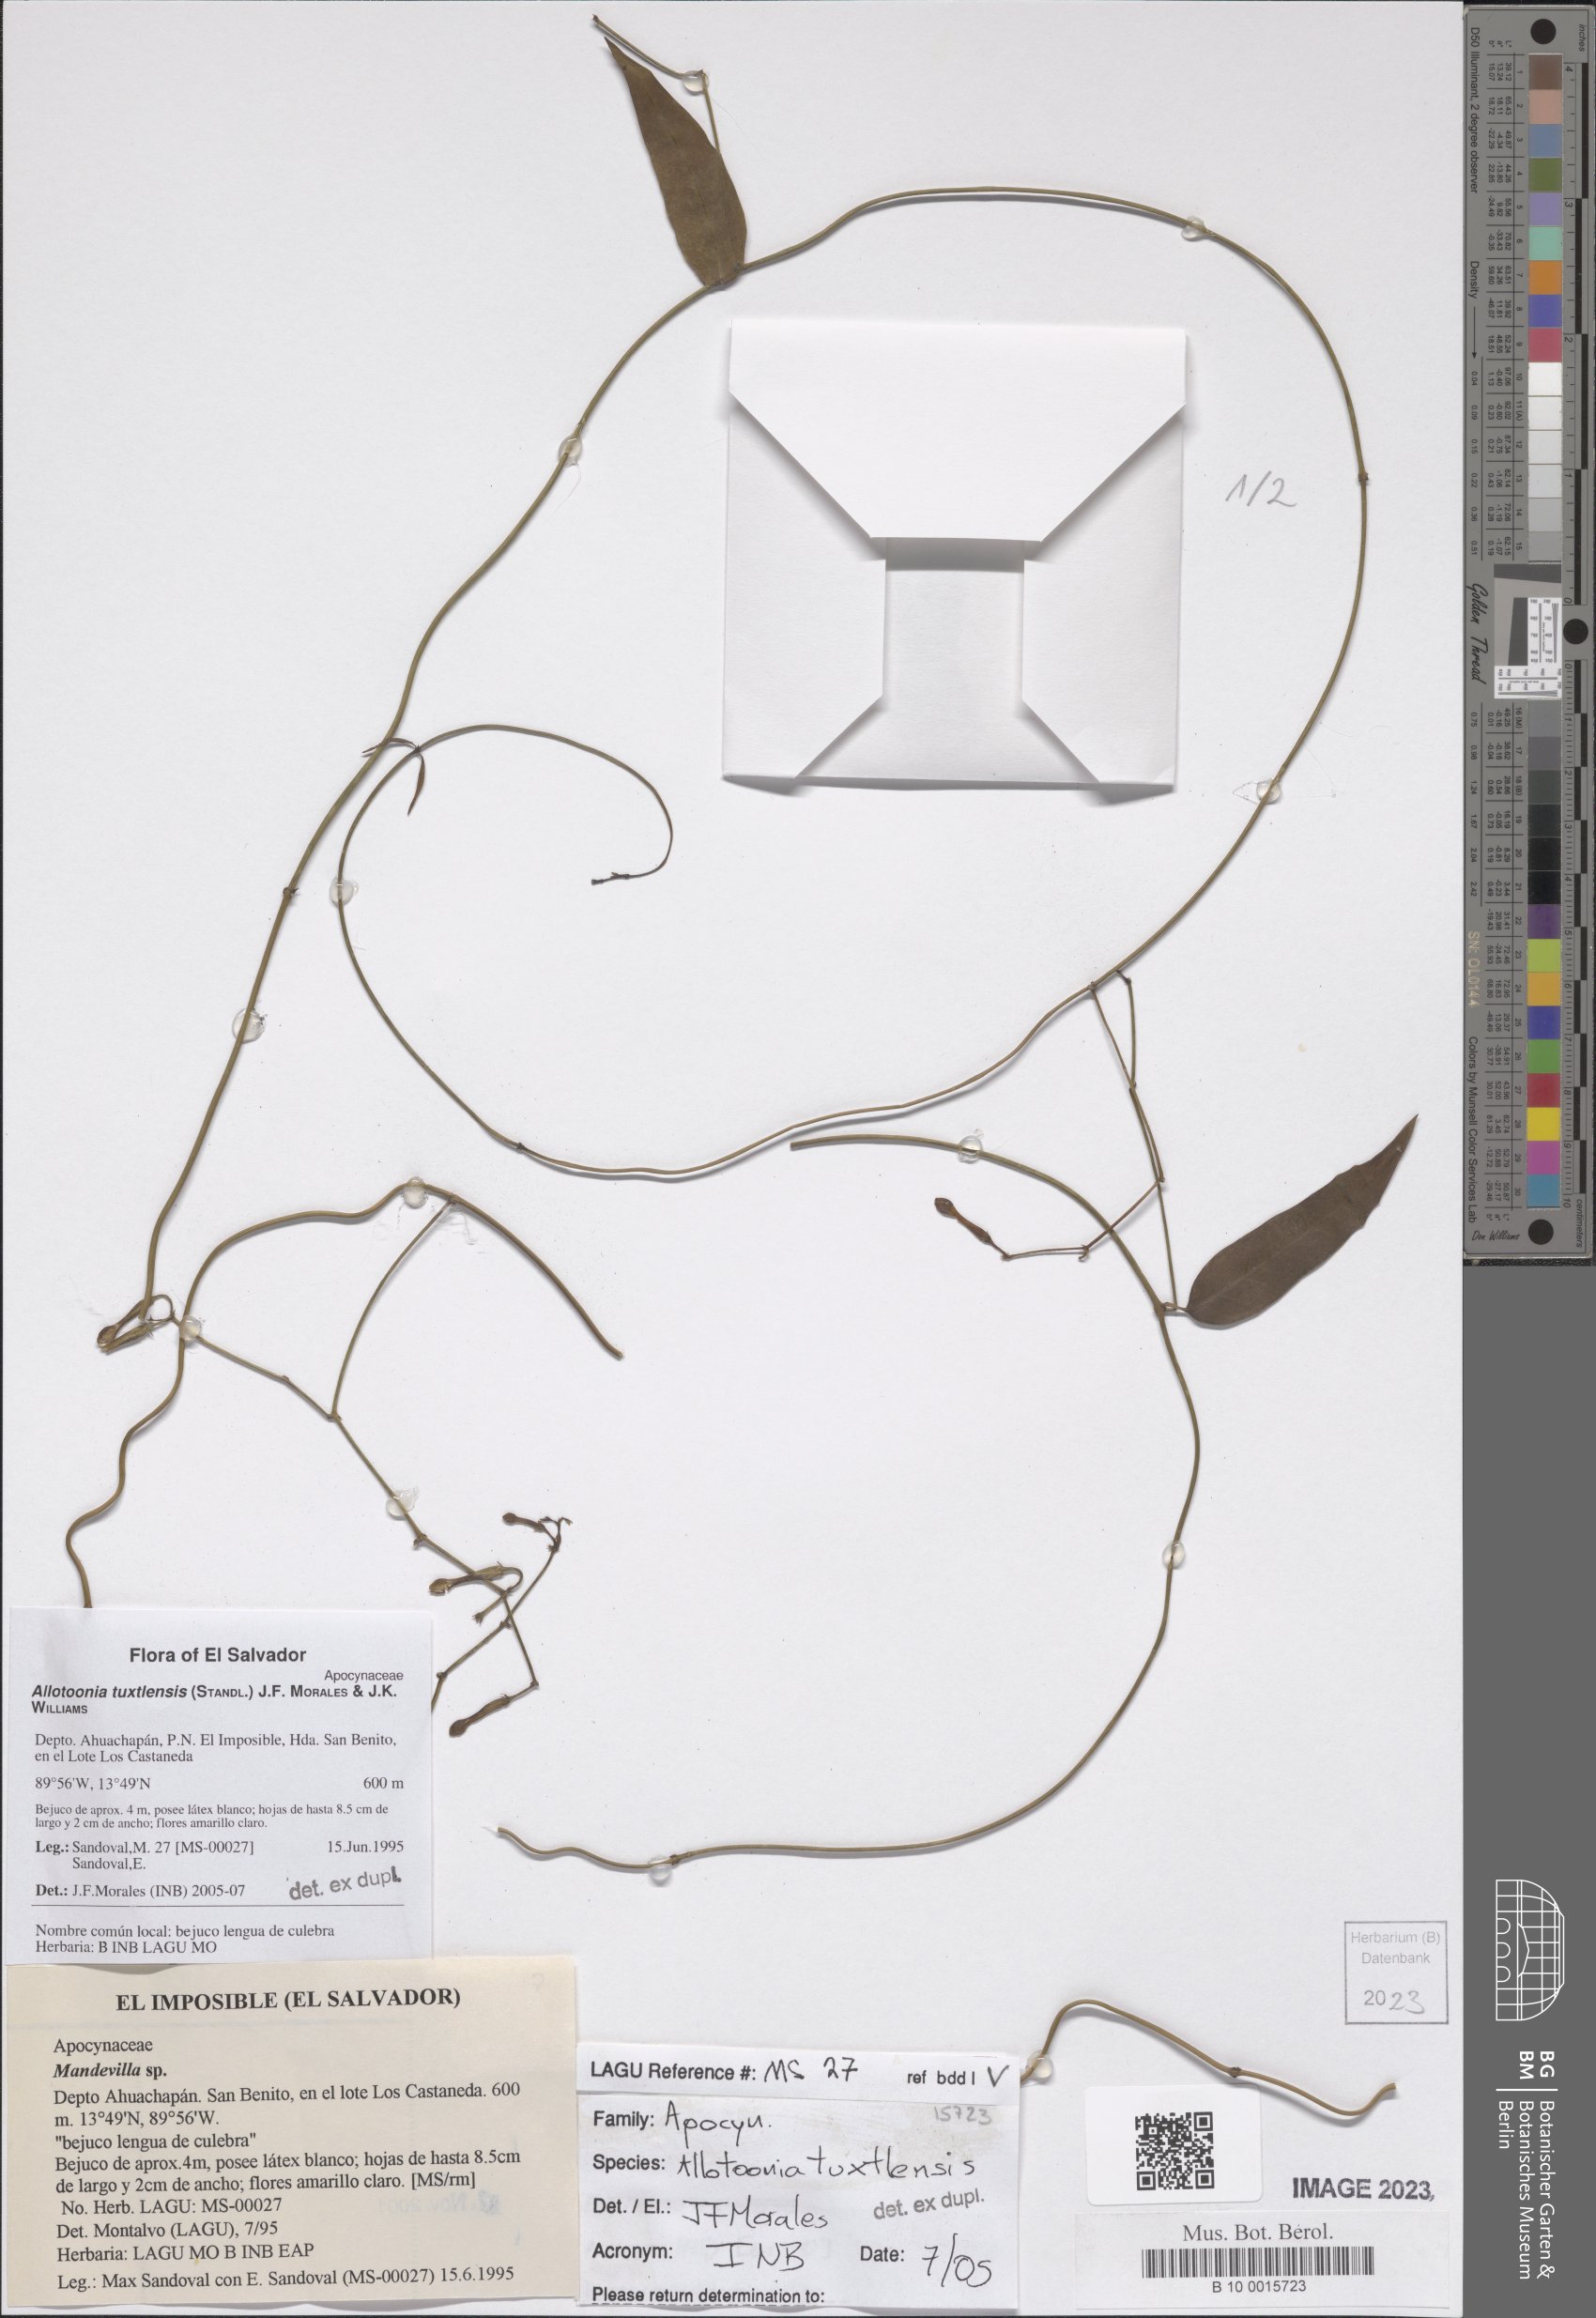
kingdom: Plantae
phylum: Tracheophyta
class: Magnoliopsida
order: Gentianales
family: Apocynaceae
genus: Echites
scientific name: Echites tuxtlensis
